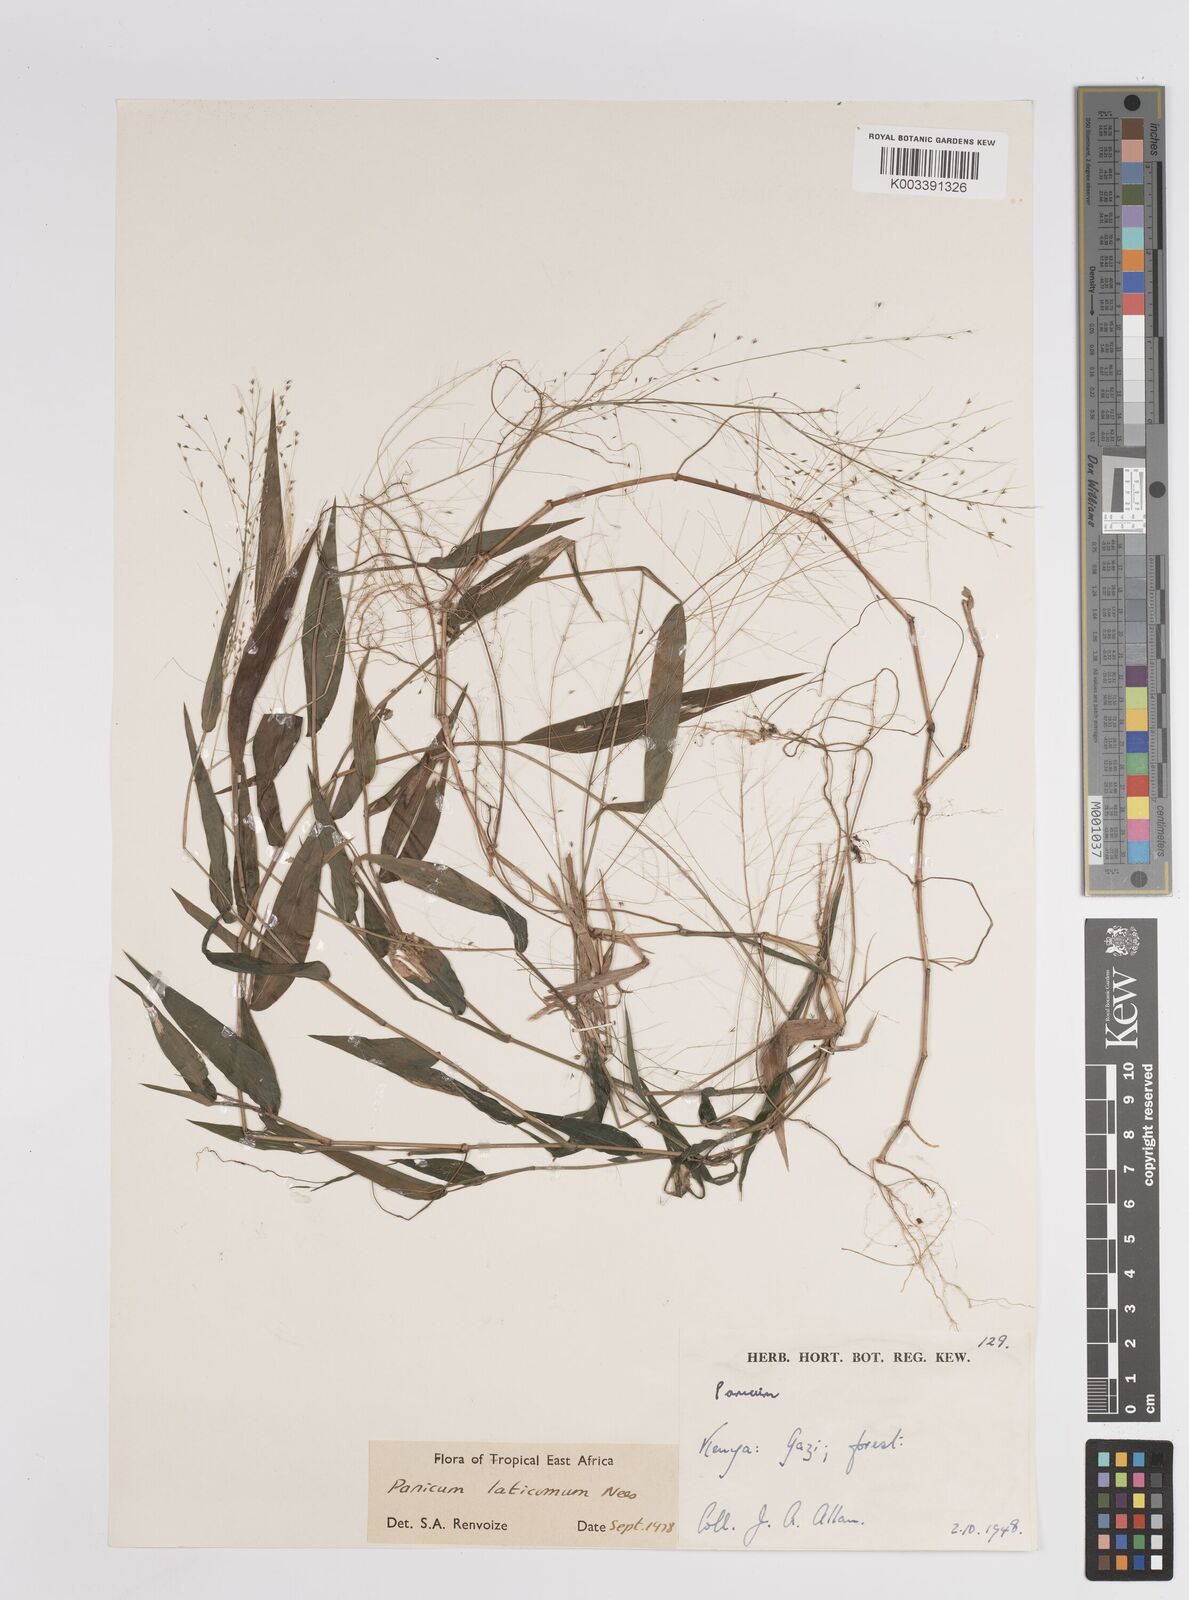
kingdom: Plantae
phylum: Tracheophyta
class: Liliopsida
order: Poales
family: Poaceae
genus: Panicum
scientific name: Panicum laticomum
